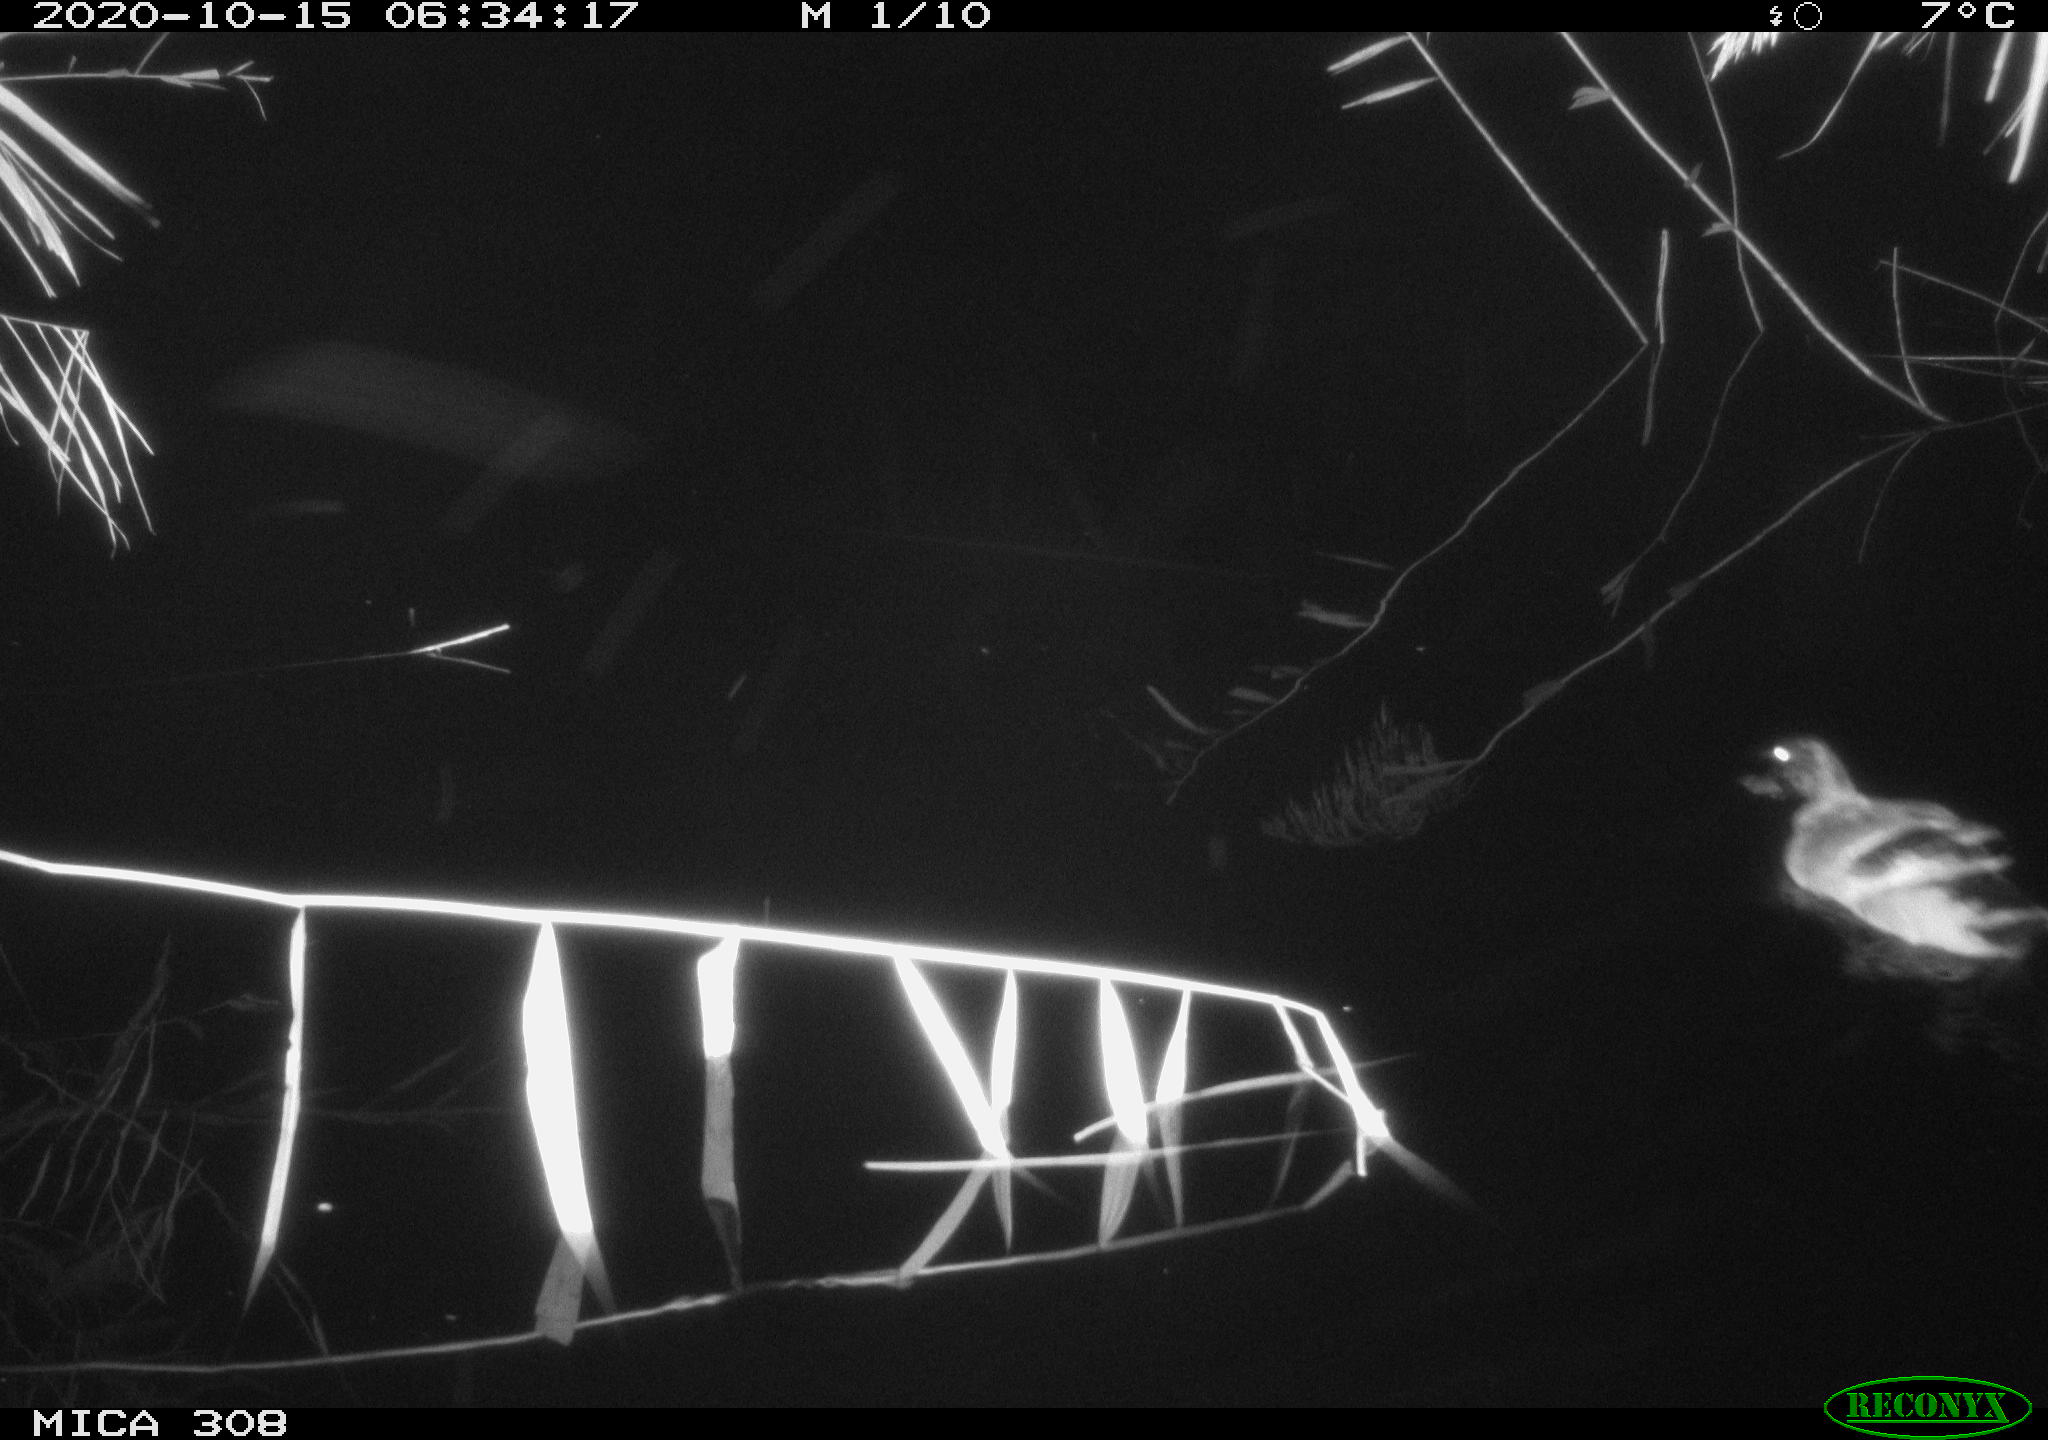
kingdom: Animalia
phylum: Chordata
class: Aves
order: Anseriformes
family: Anatidae
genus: Anas
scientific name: Anas platyrhynchos
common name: Mallard
